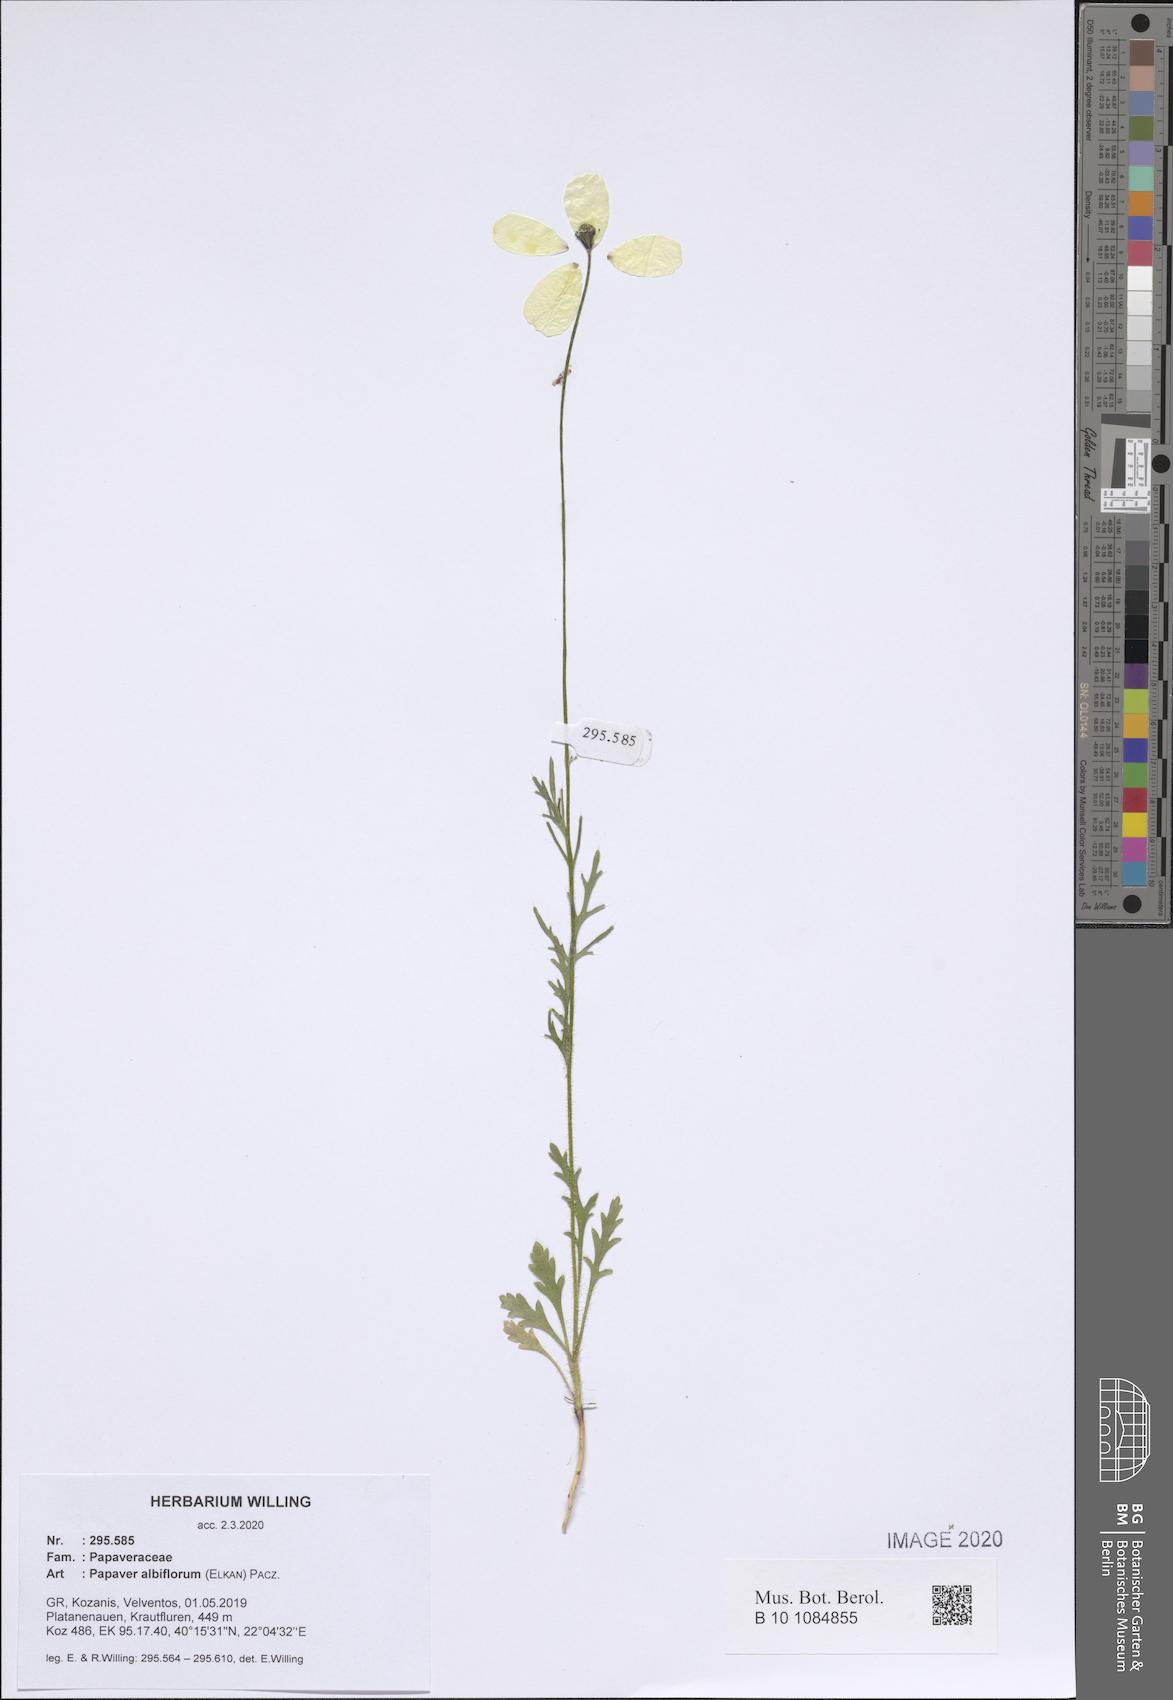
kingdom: Plantae
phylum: Tracheophyta
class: Magnoliopsida
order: Ranunculales
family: Papaveraceae
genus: Papaver
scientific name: Papaver albiflorum
